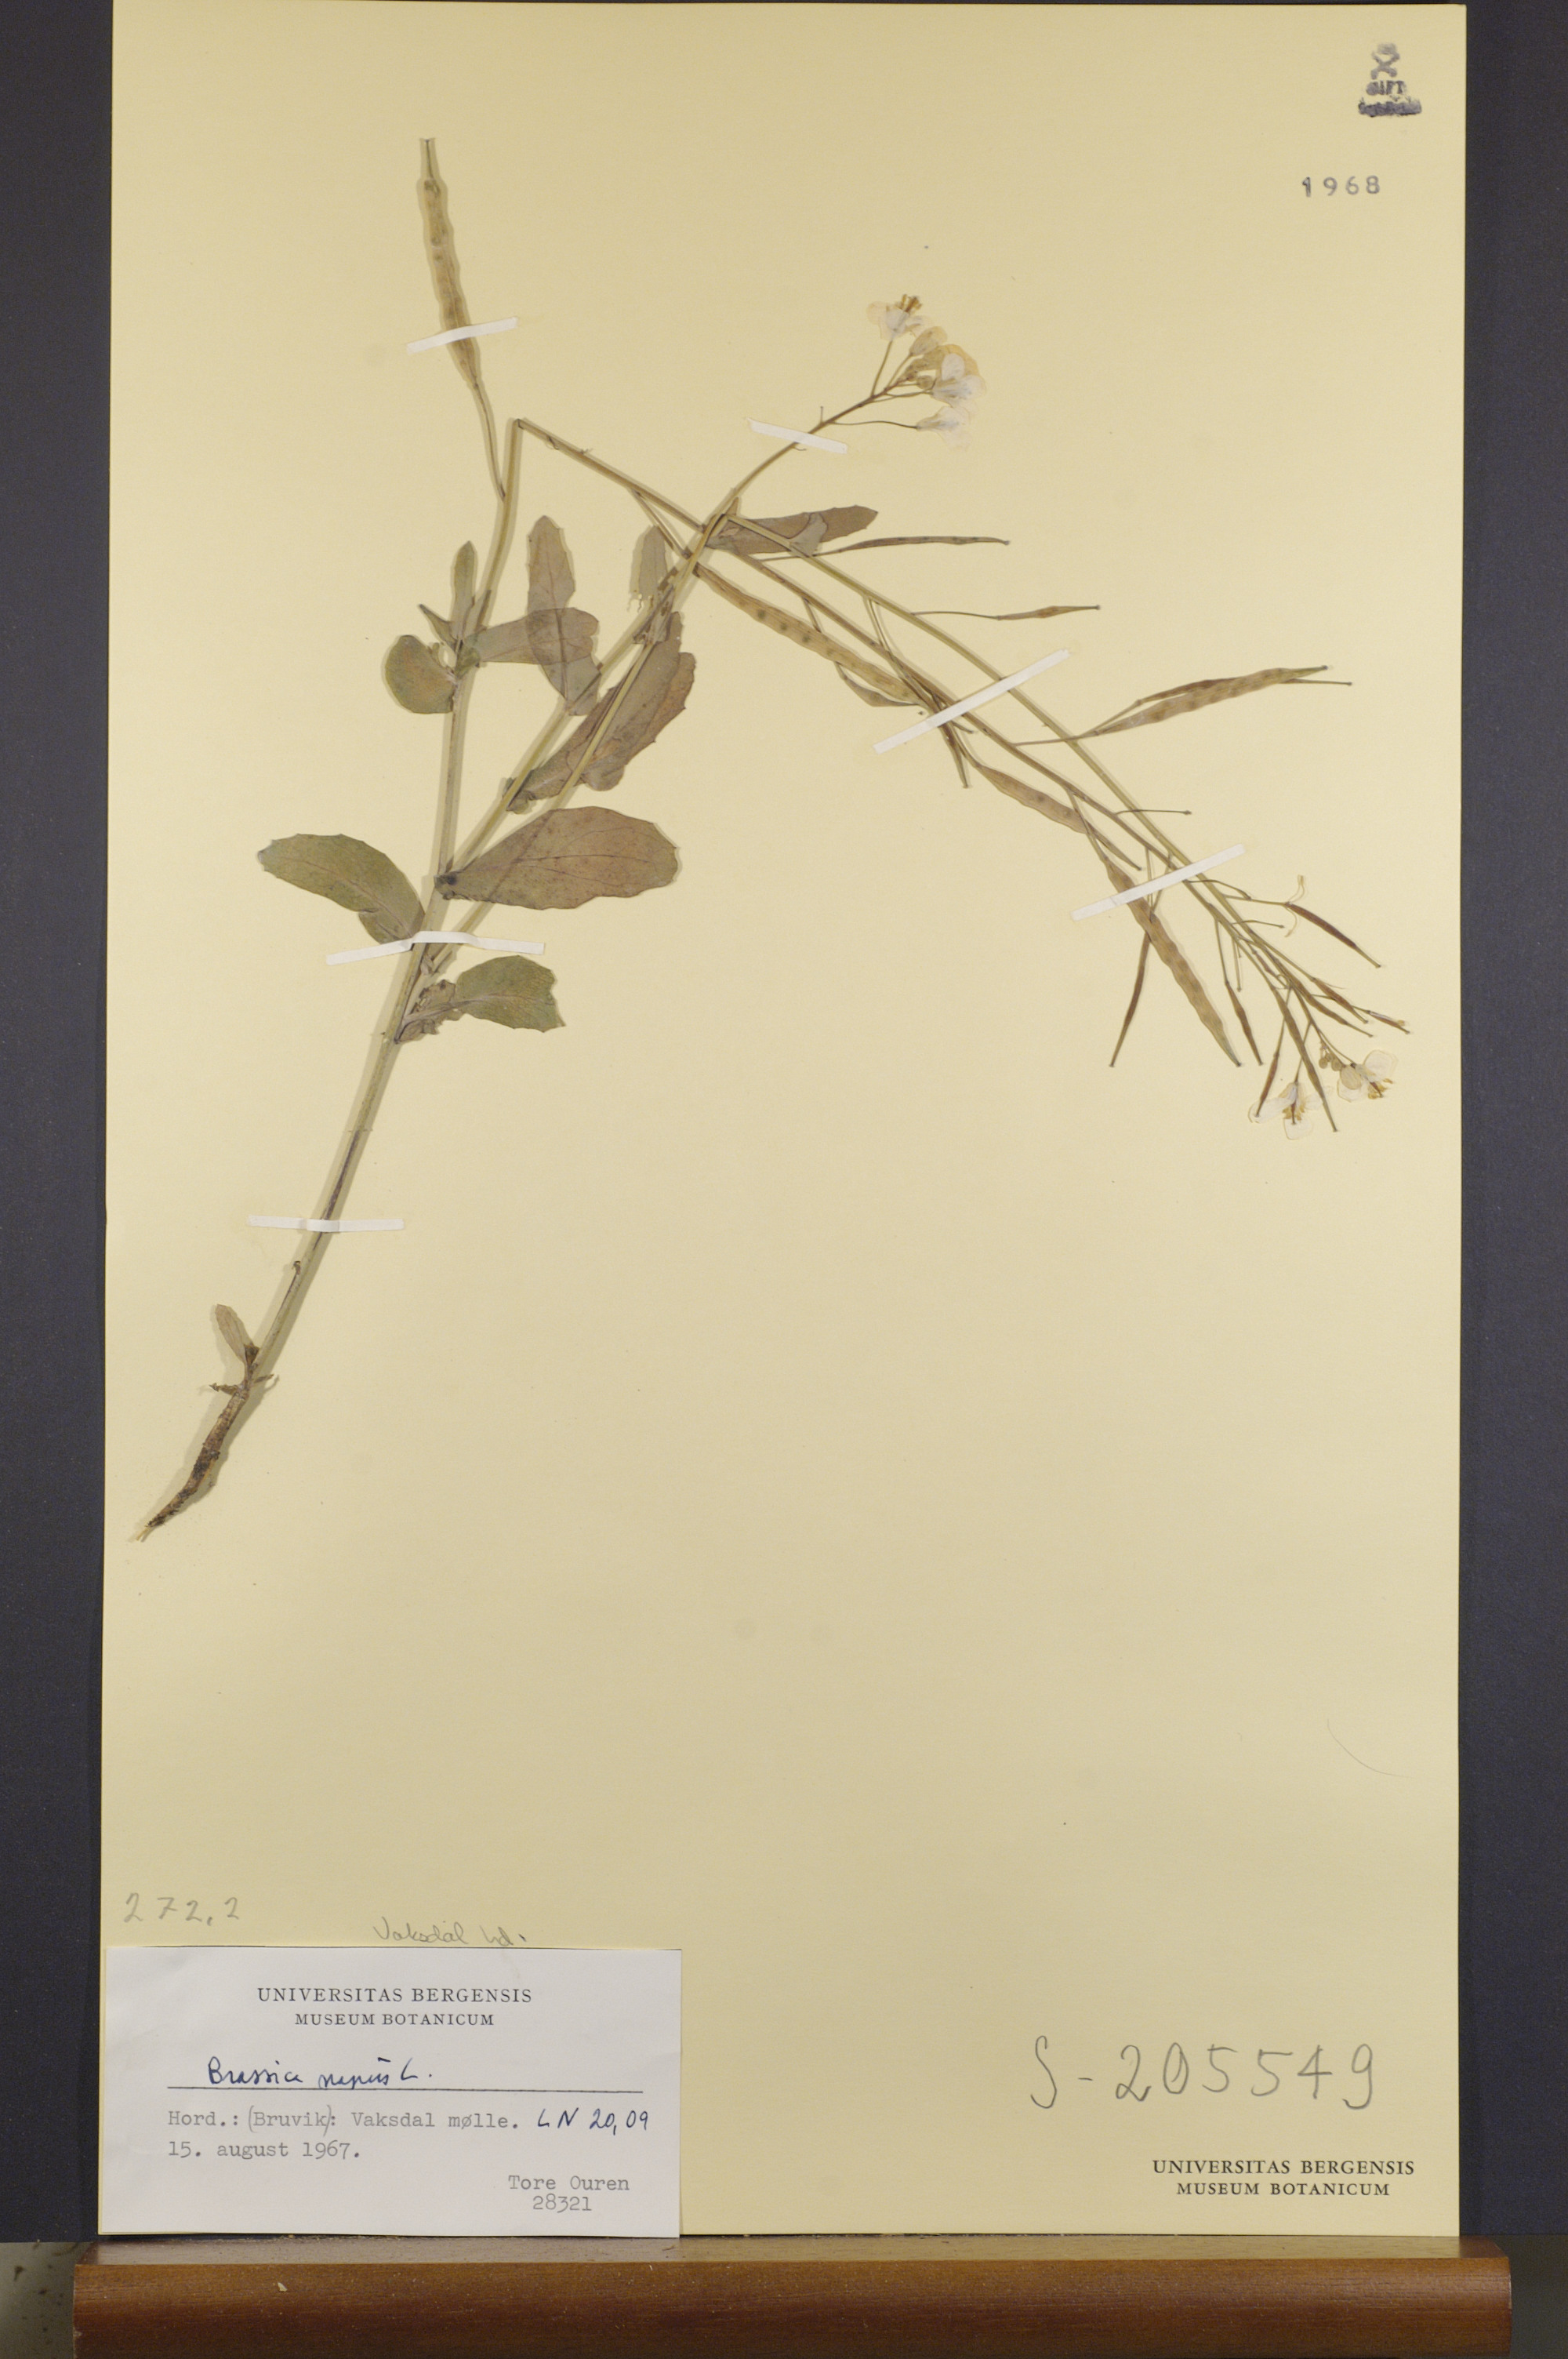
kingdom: Plantae
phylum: Tracheophyta
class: Magnoliopsida
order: Brassicales
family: Brassicaceae
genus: Brassica
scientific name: Brassica napus
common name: Rape
